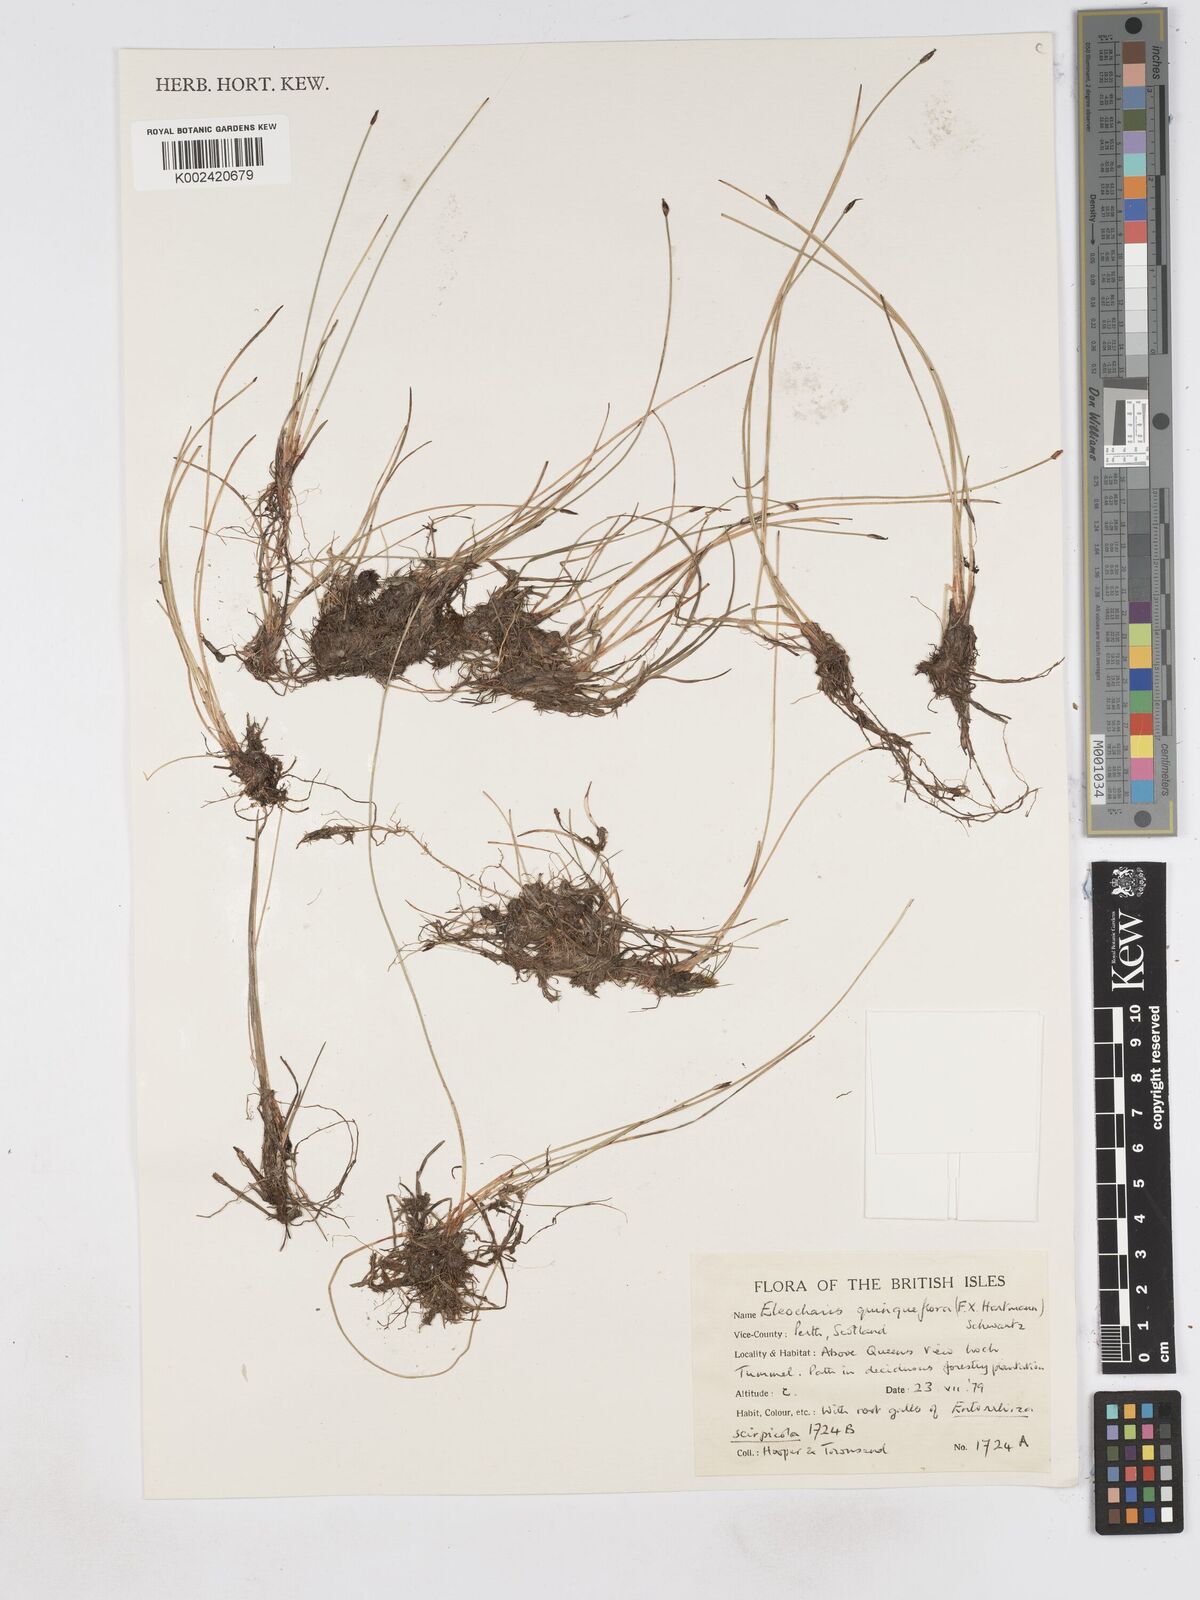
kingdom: Plantae
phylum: Tracheophyta
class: Liliopsida
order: Poales
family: Cyperaceae
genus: Eleocharis
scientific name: Eleocharis quinqueflora
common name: Few-flowered spike-rush
